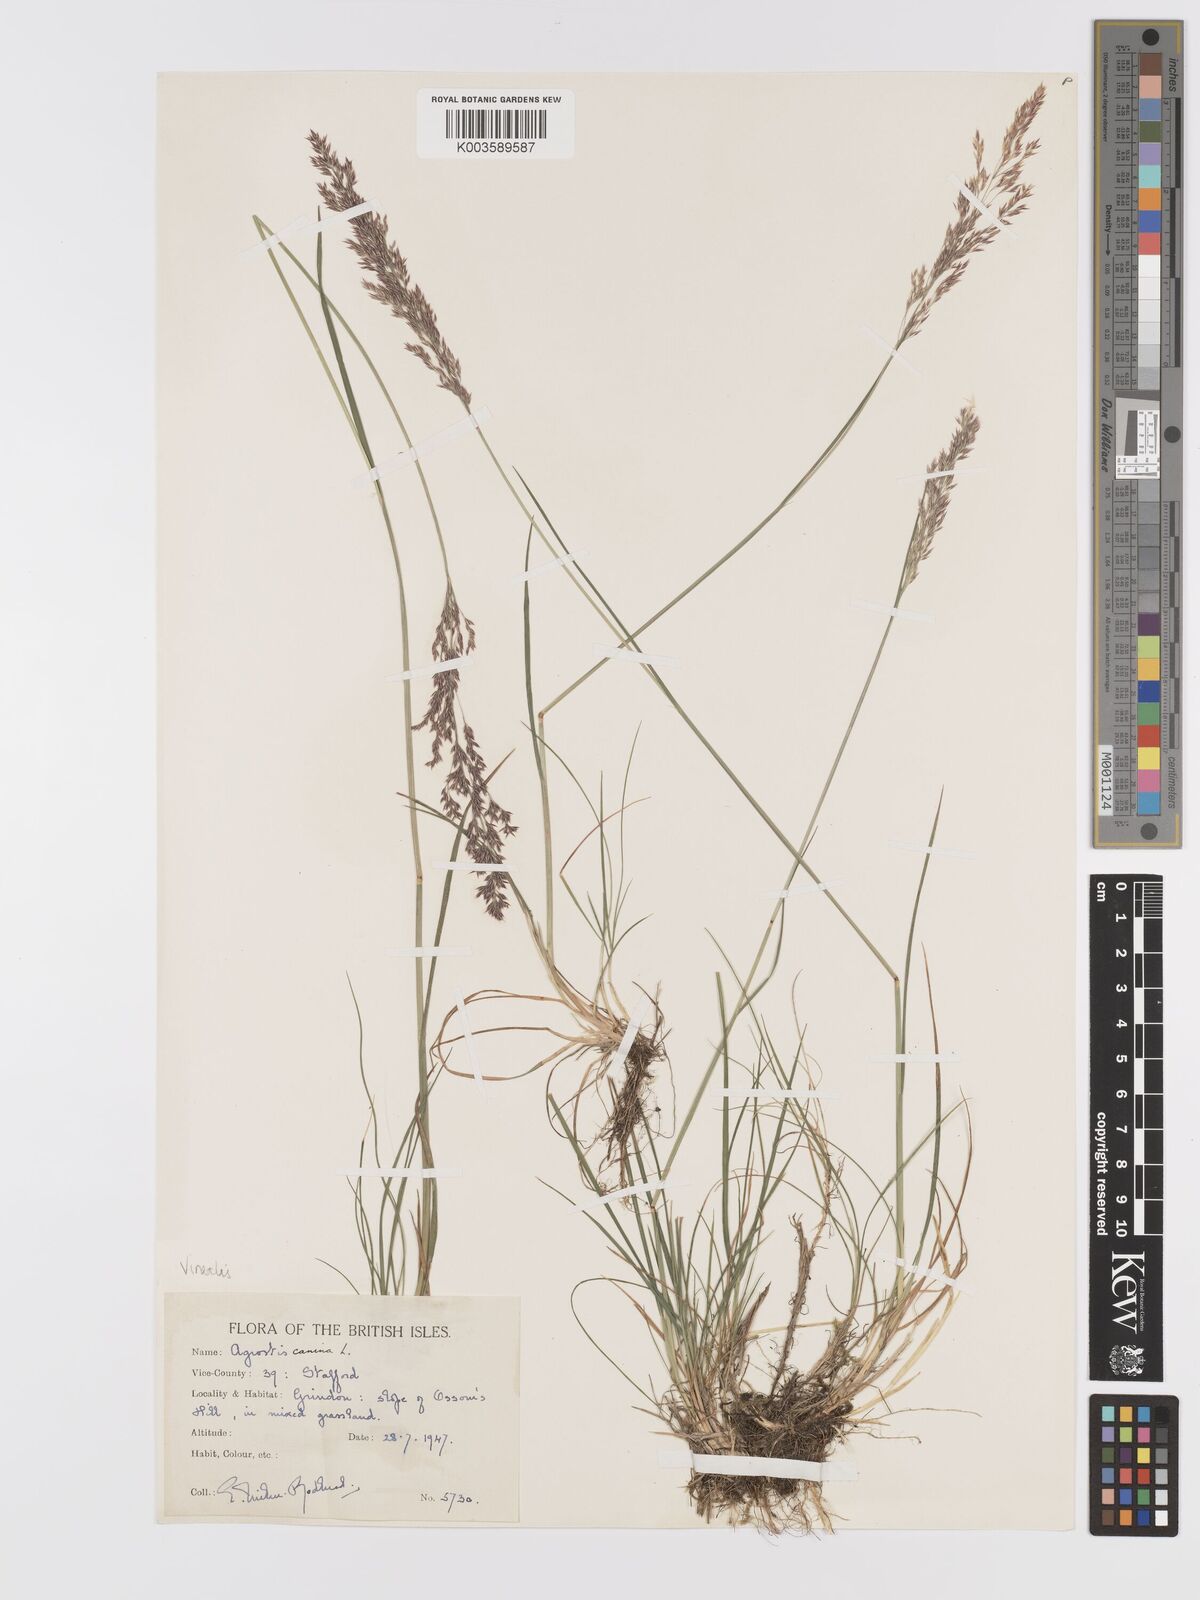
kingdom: Plantae
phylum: Tracheophyta
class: Liliopsida
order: Poales
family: Poaceae
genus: Agrostis
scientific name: Agrostis
